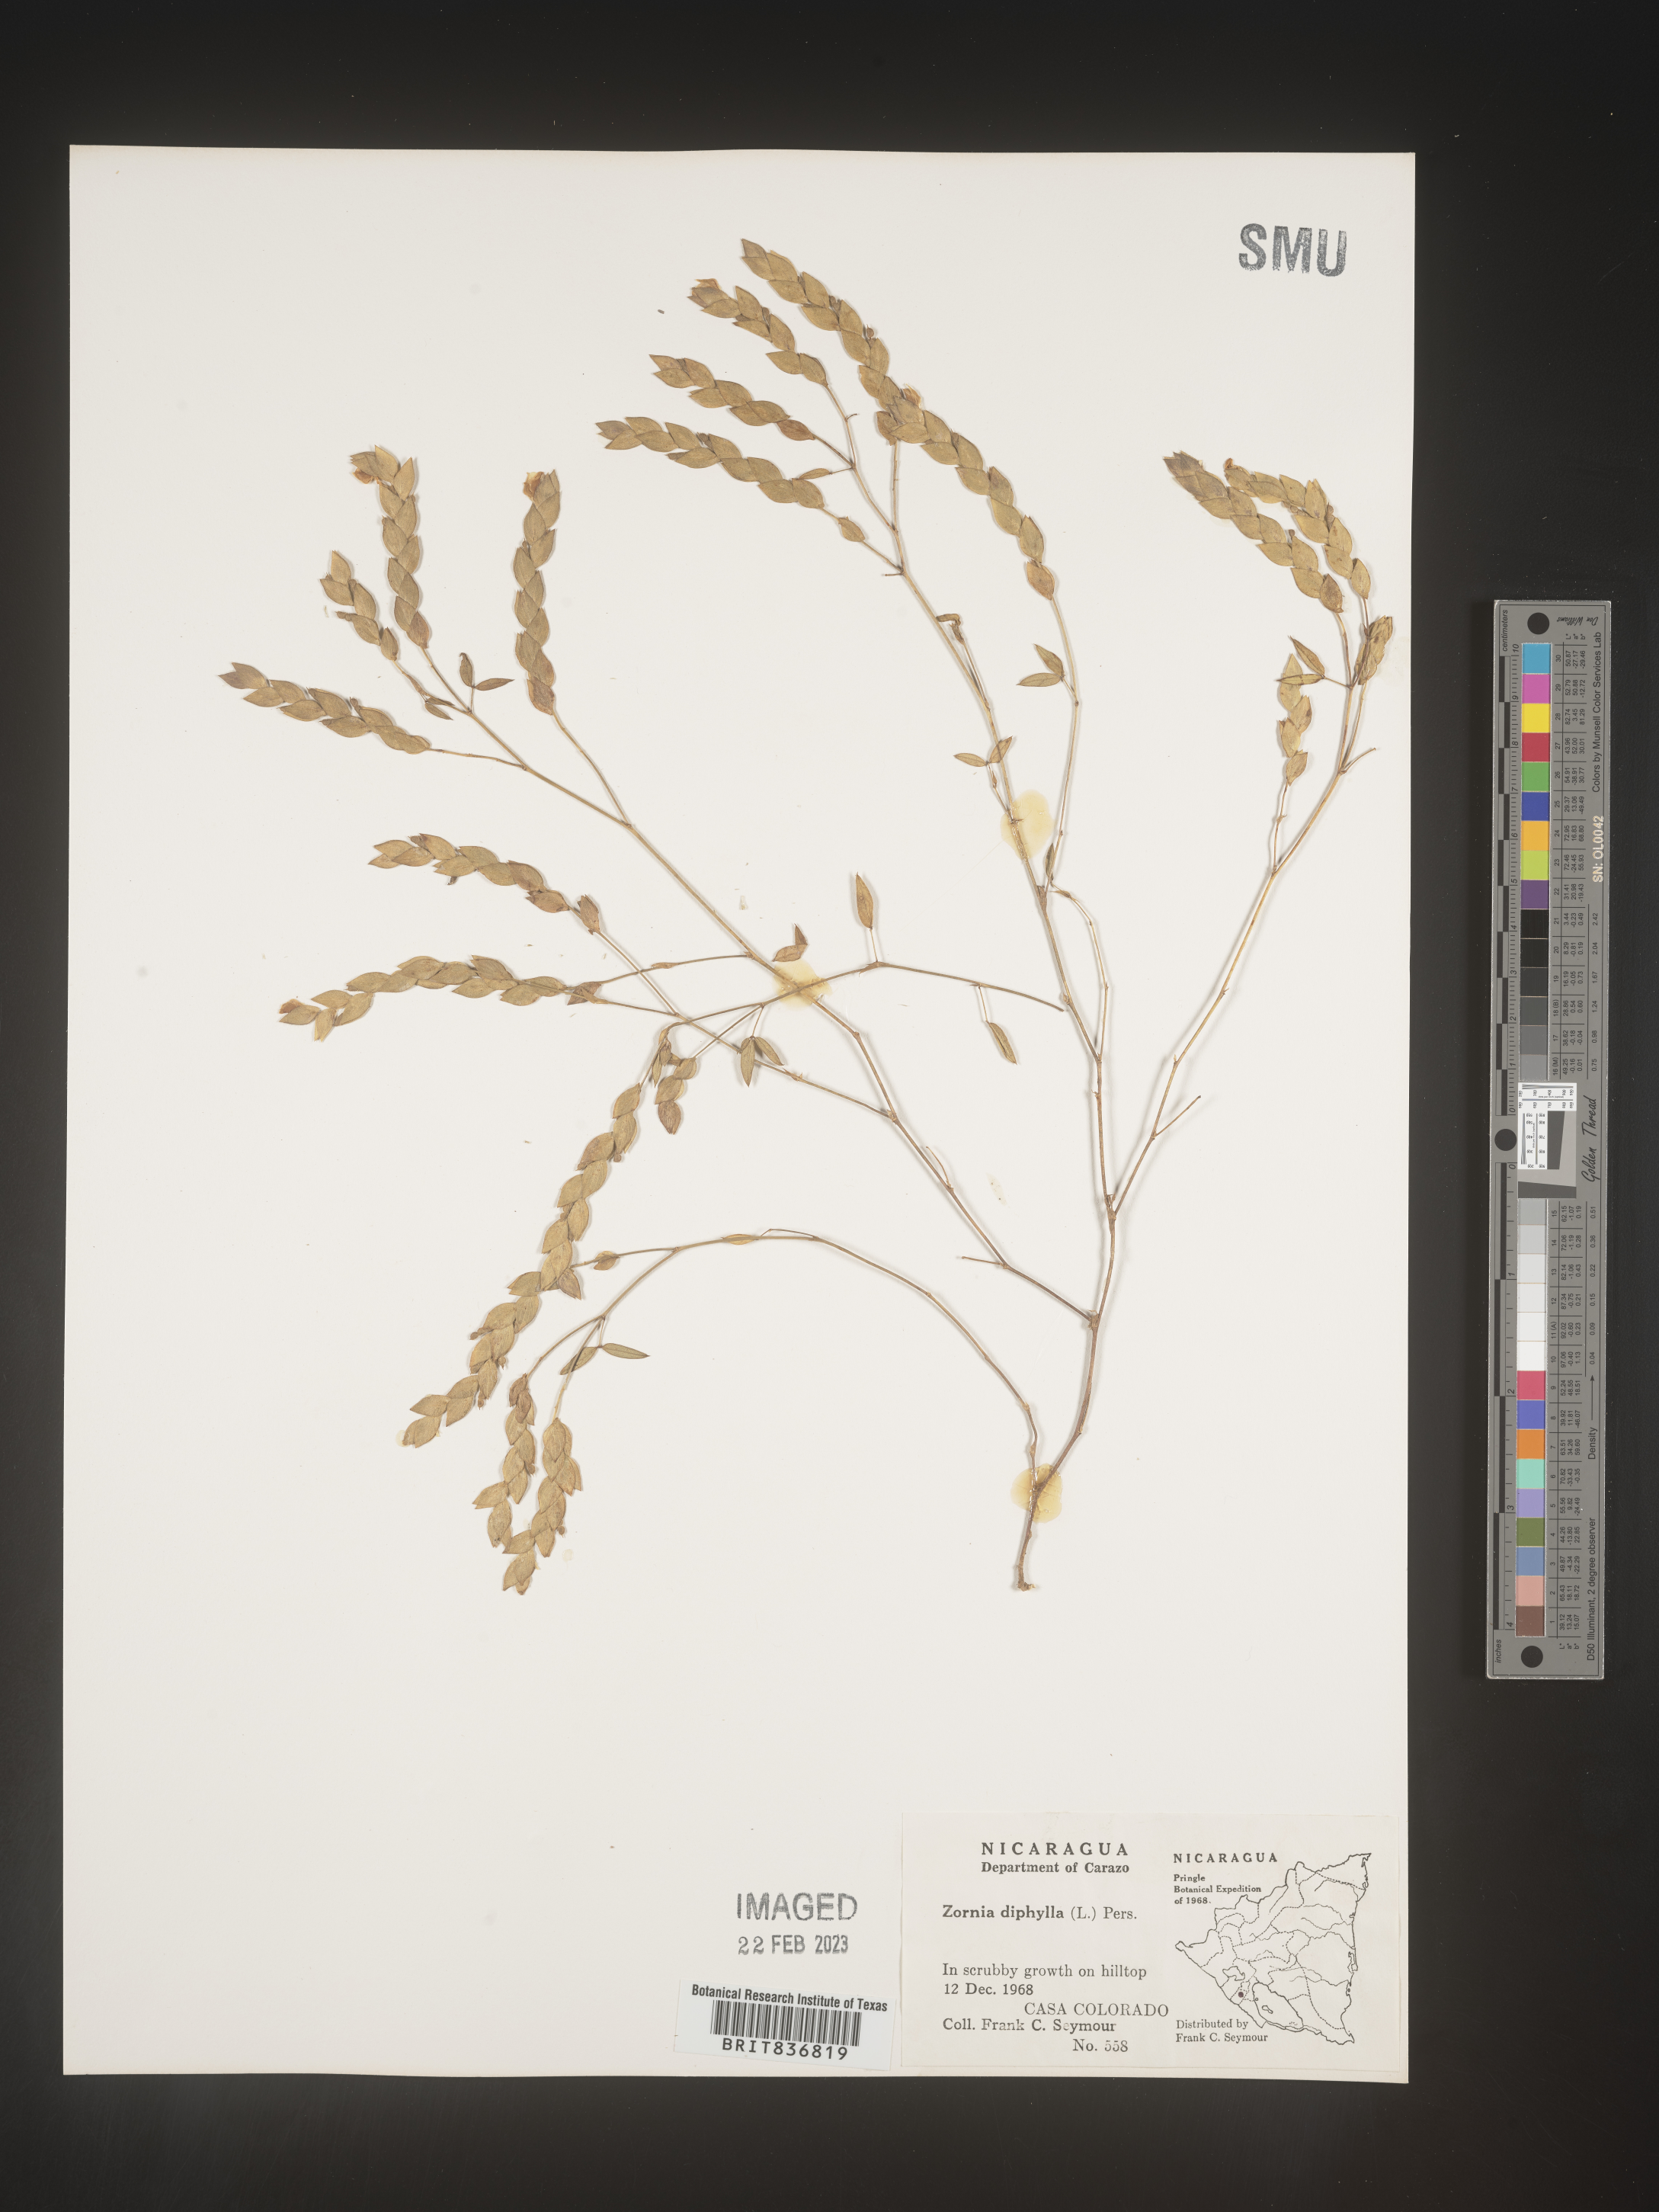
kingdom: Plantae
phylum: Tracheophyta
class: Magnoliopsida
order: Fabales
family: Fabaceae
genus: Zornia
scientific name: Zornia
